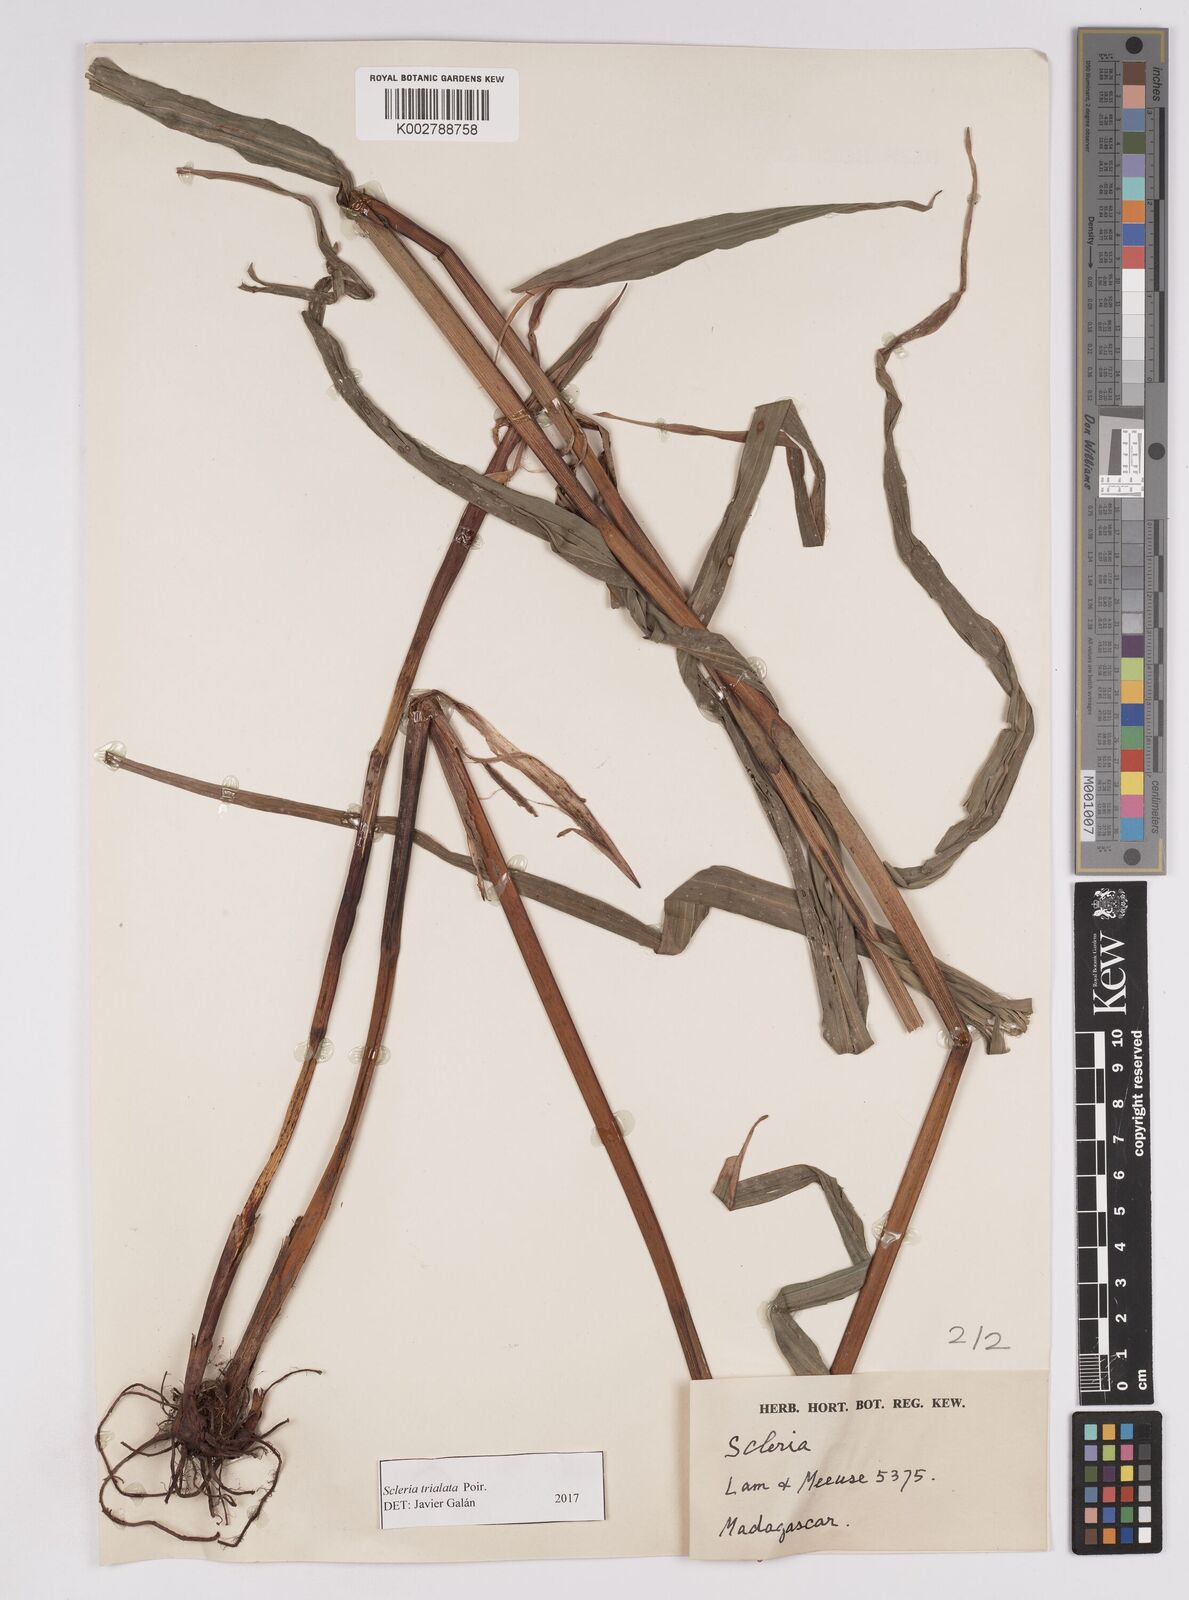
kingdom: Plantae
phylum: Tracheophyta
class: Liliopsida
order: Poales
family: Cyperaceae
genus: Scleria
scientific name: Scleria trialata
